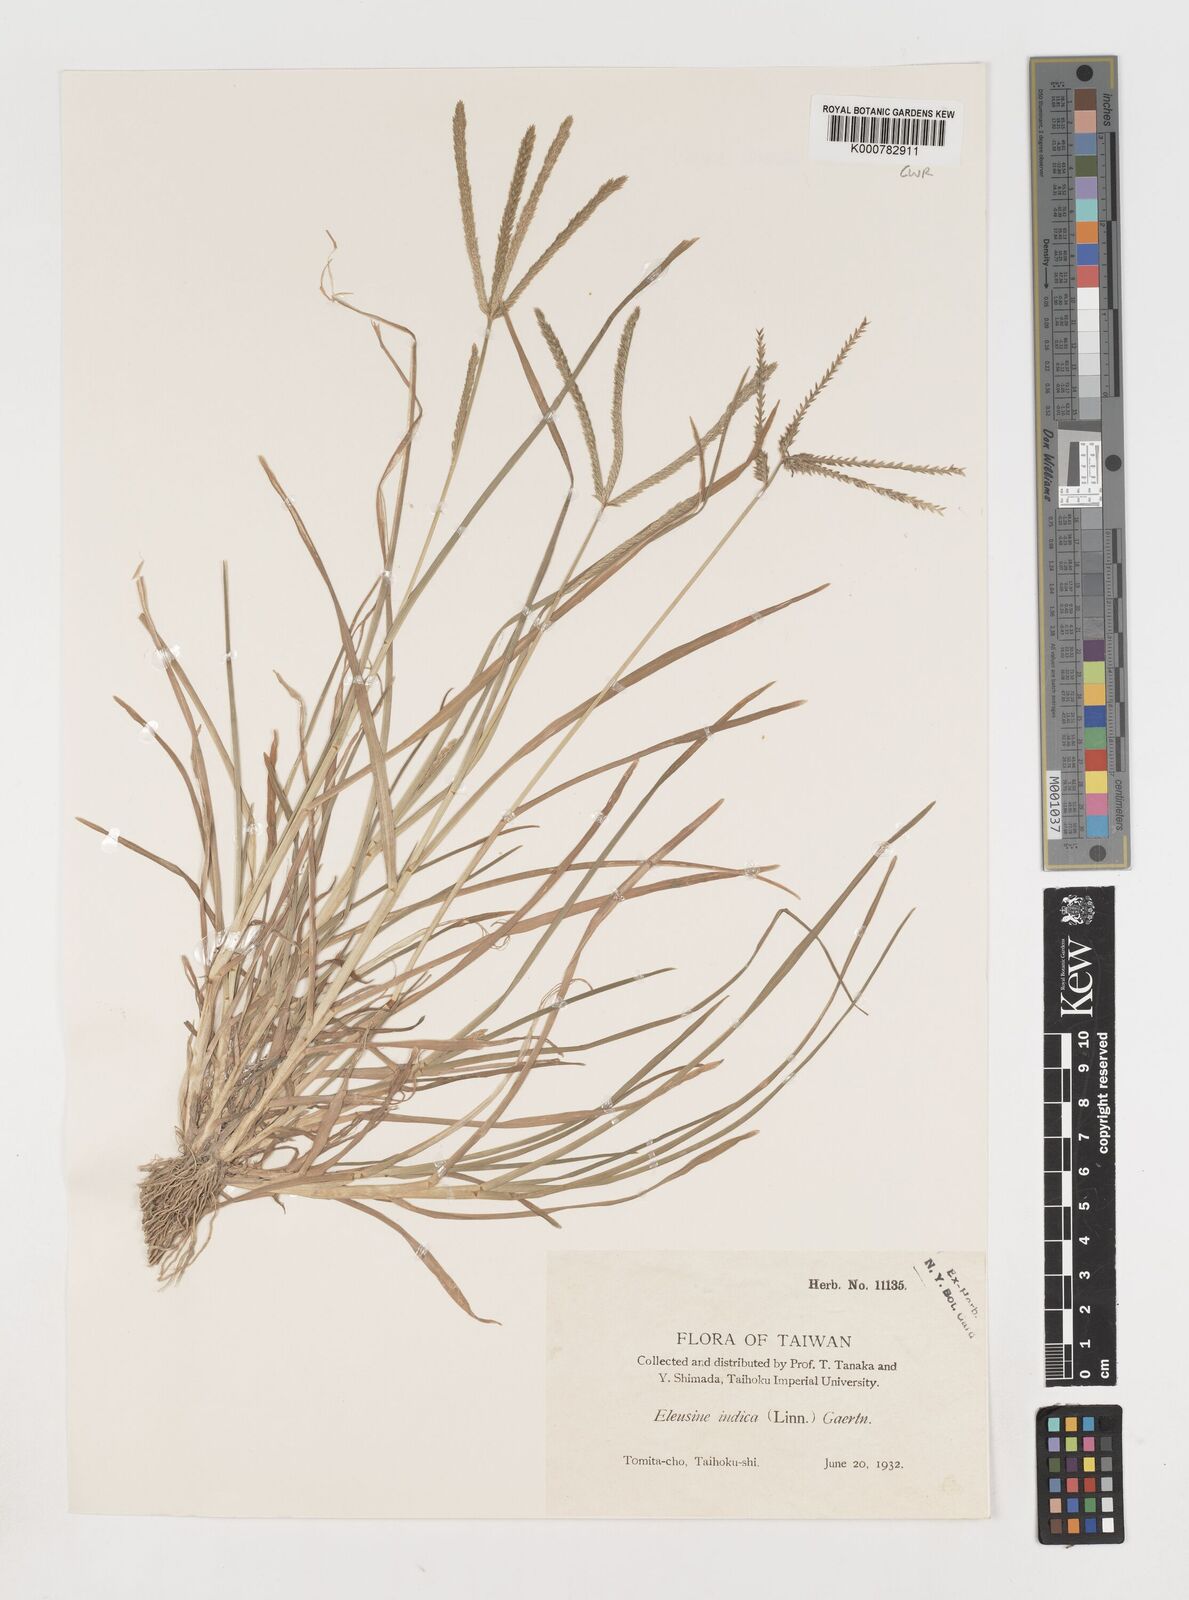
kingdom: Plantae
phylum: Tracheophyta
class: Liliopsida
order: Poales
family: Poaceae
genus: Eleusine
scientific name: Eleusine indica
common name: Yard-grass
